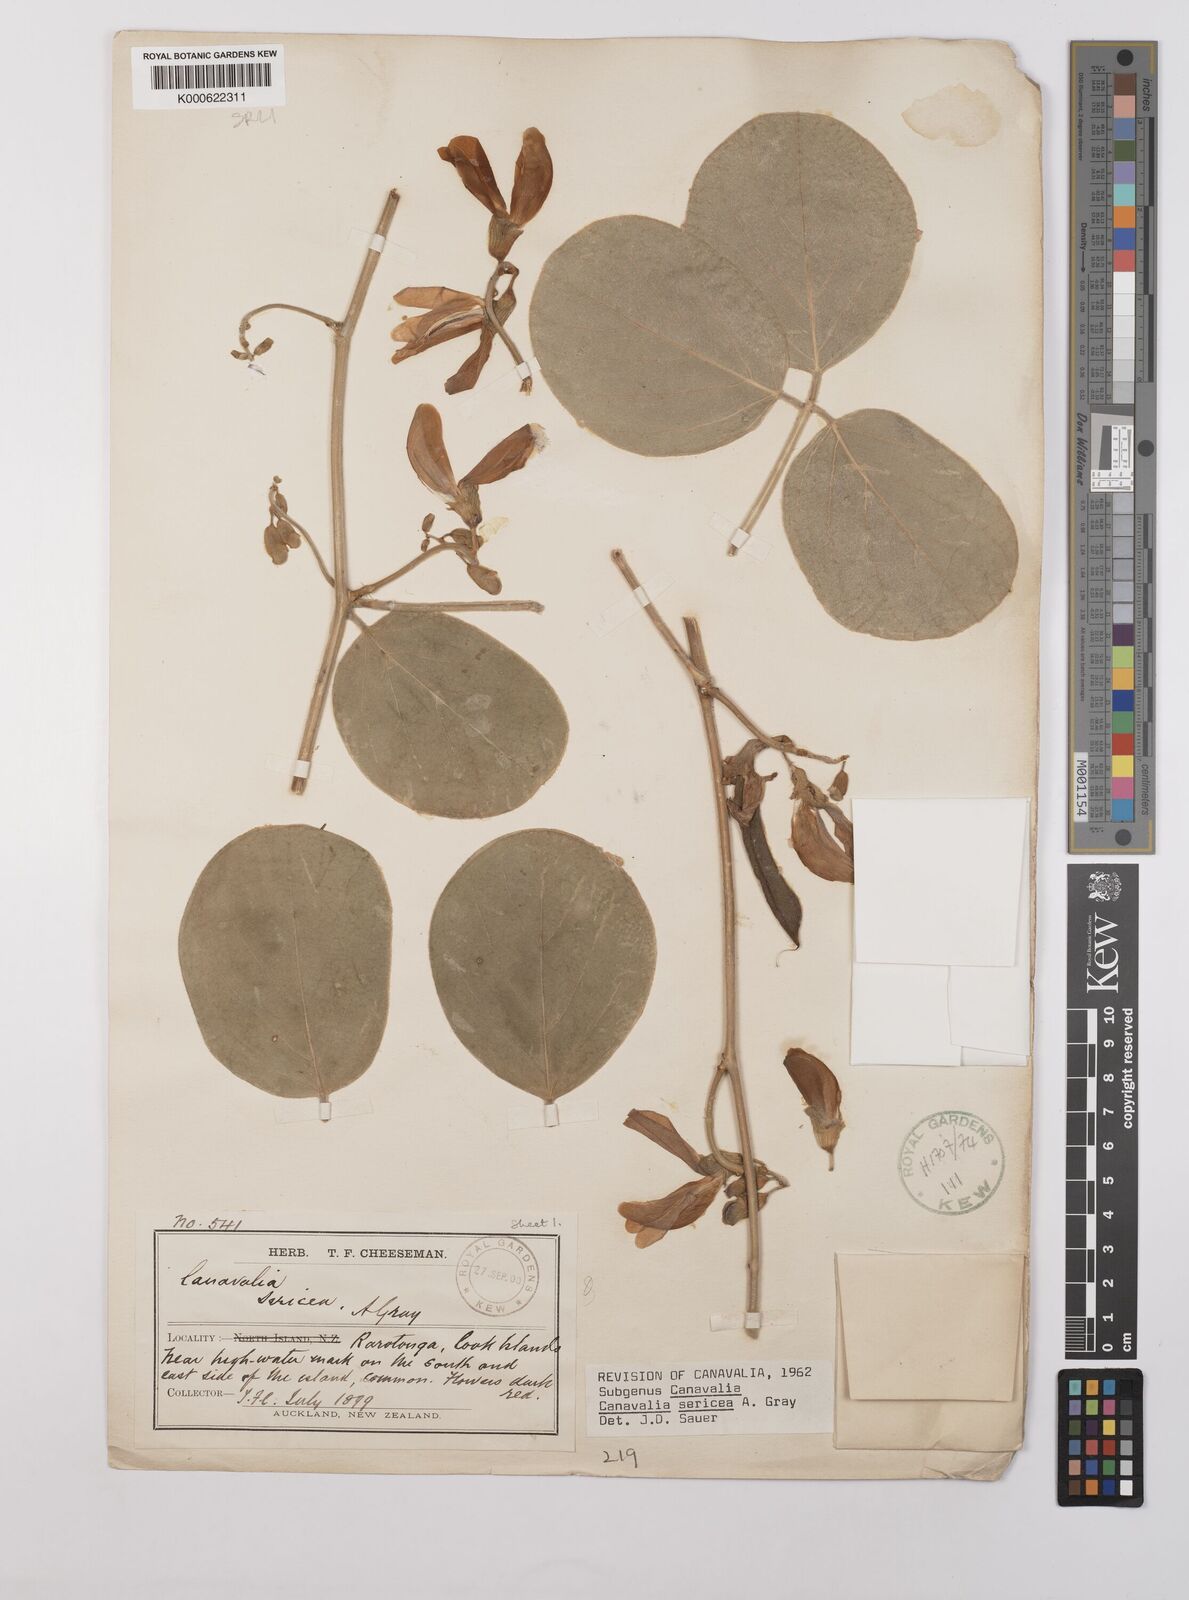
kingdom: Plantae
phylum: Tracheophyta
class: Magnoliopsida
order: Fabales
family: Fabaceae
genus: Canavalia
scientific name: Canavalia sericea
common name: Silky jackbean
